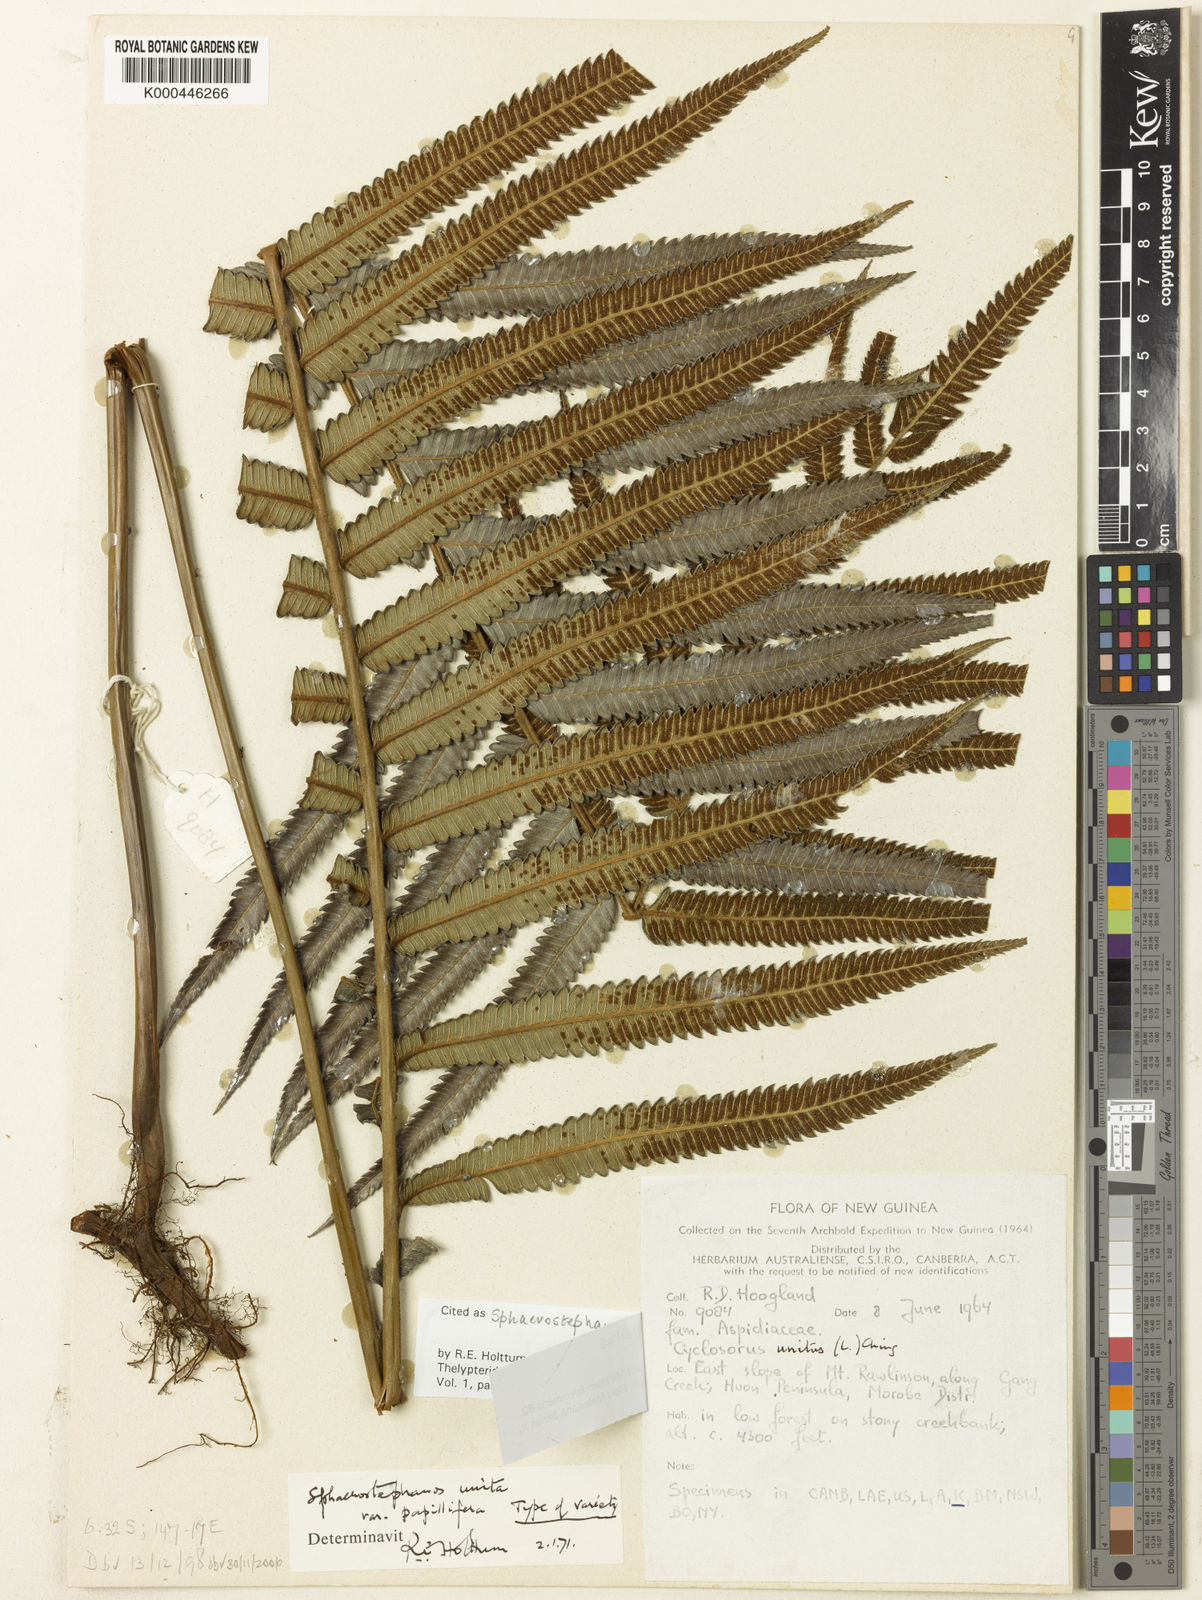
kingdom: Plantae
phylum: Tracheophyta
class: Polypodiopsida
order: Polypodiales
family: Thelypteridaceae
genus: Strophocaulon
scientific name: Strophocaulon unitum
